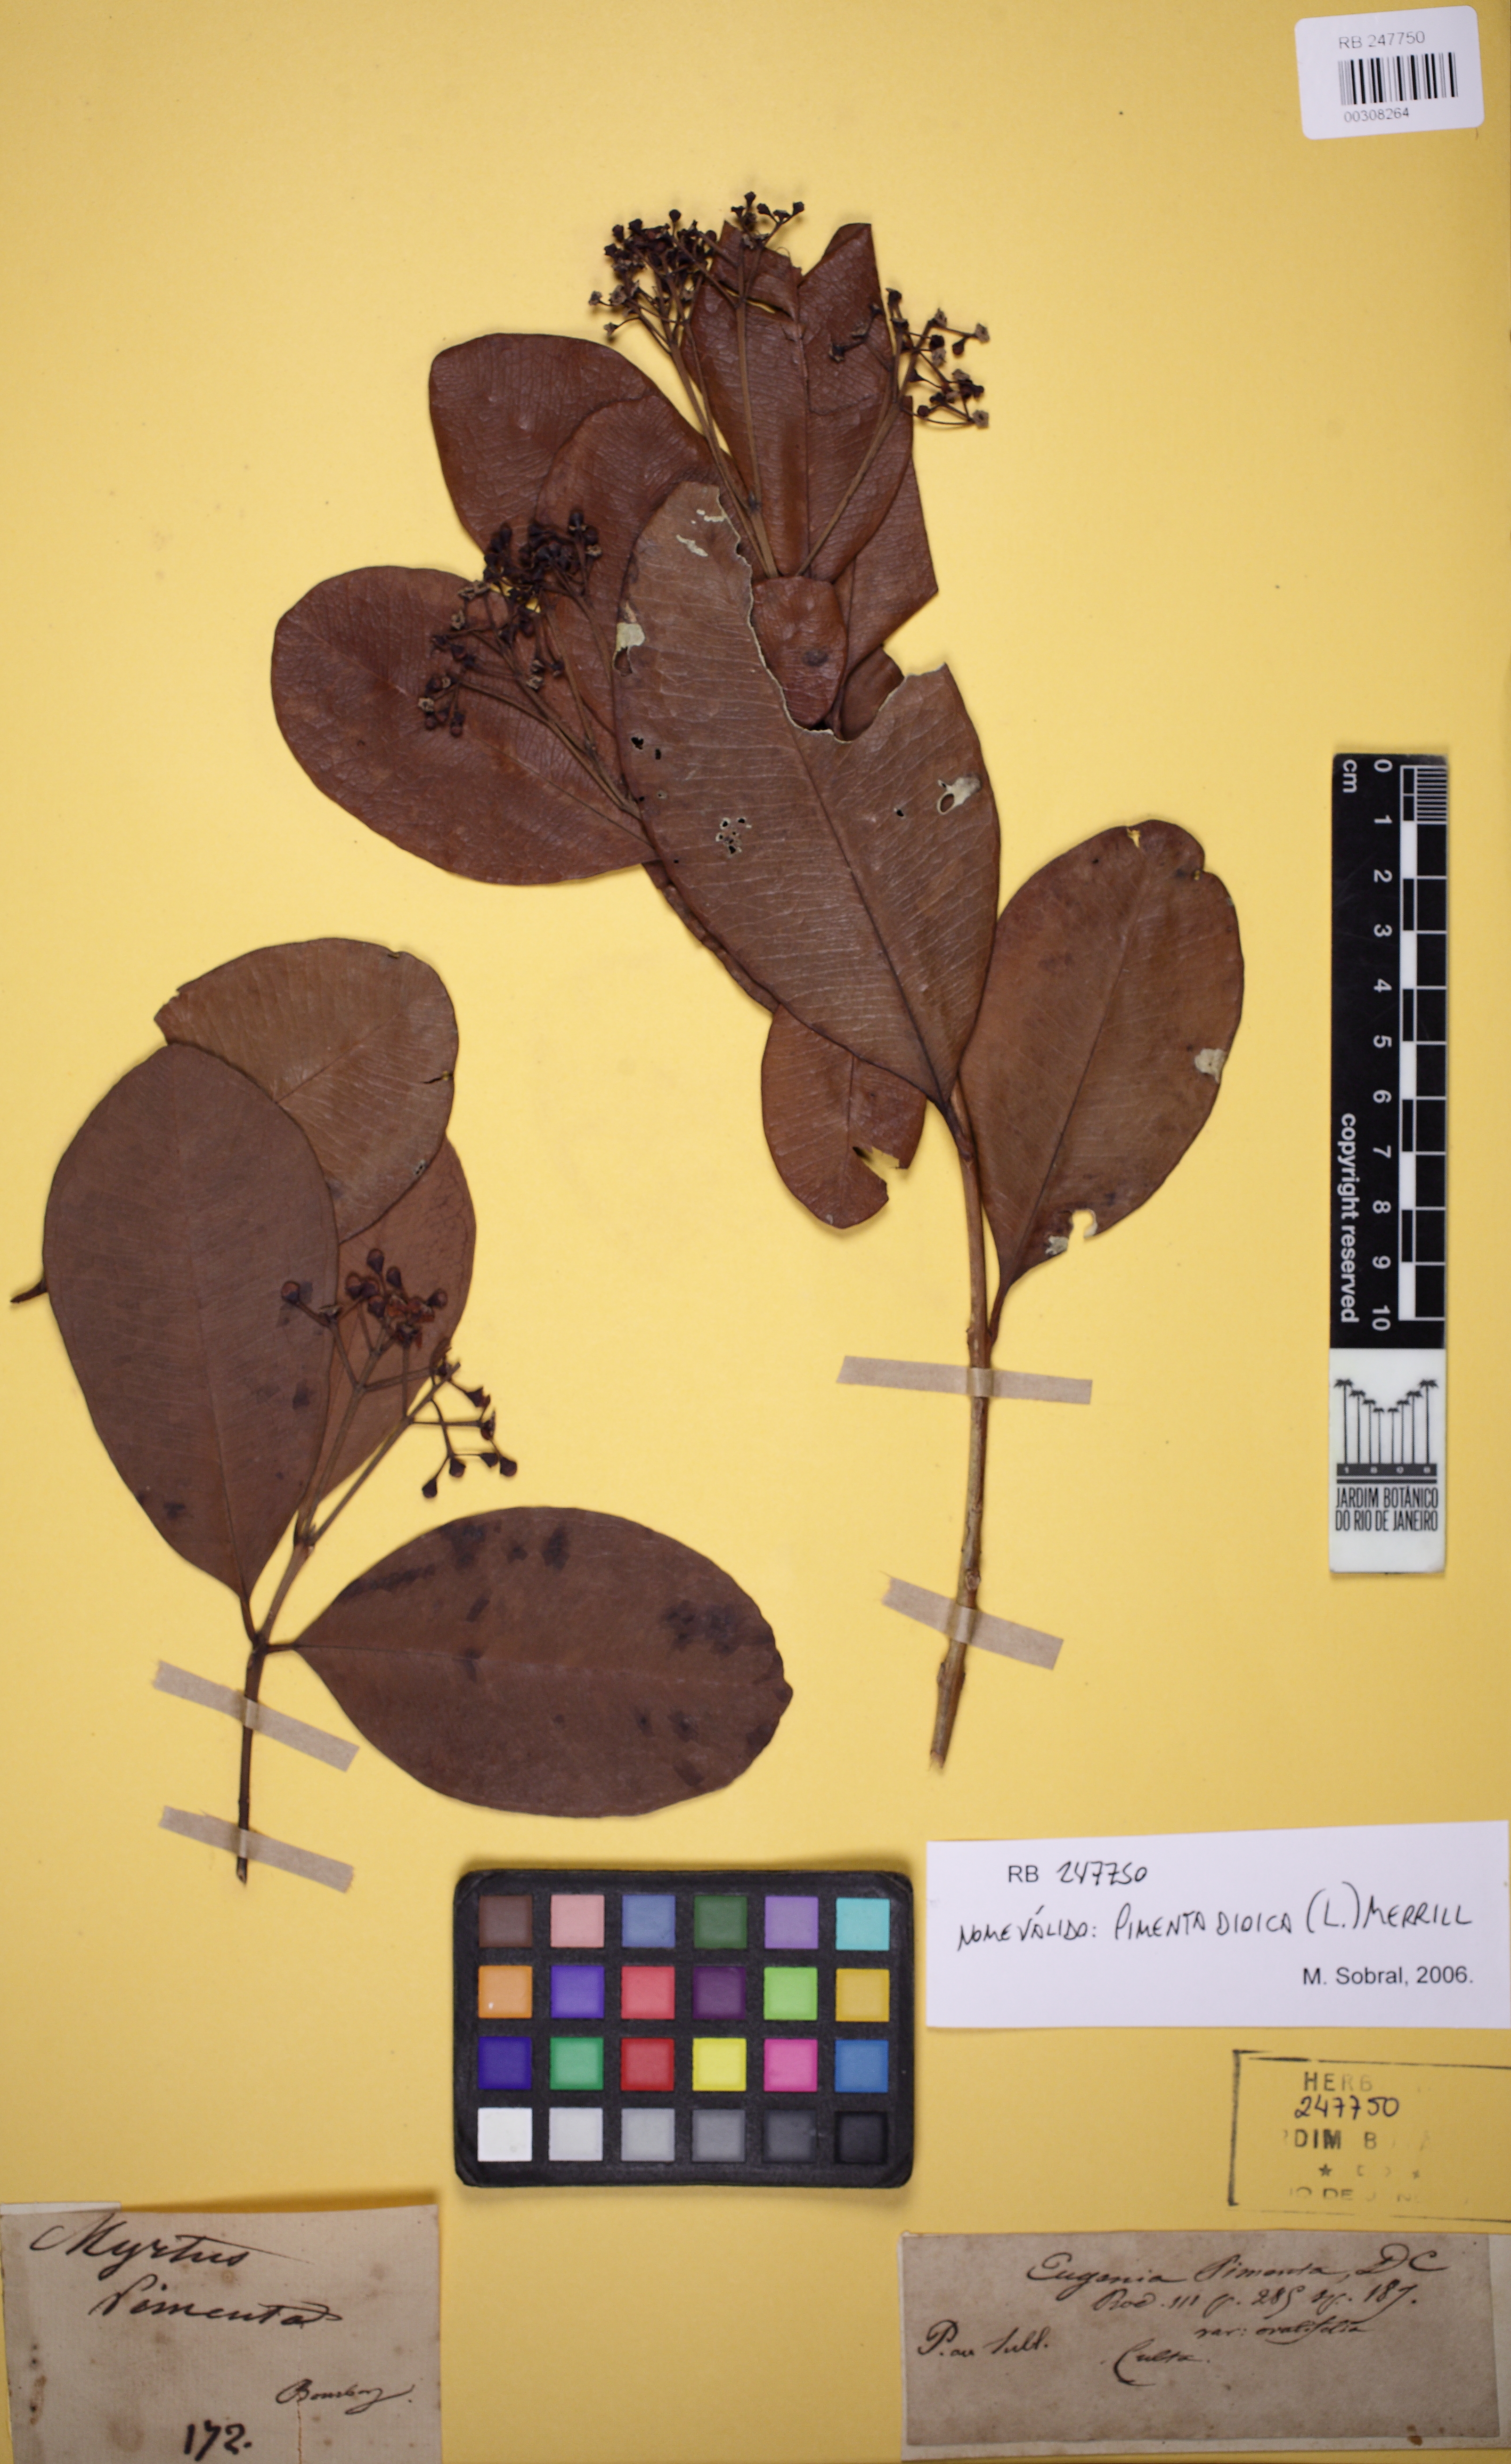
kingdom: Plantae
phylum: Tracheophyta
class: Magnoliopsida
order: Myrtales
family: Myrtaceae
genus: Pimenta
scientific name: Pimenta dioica
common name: Allspice
